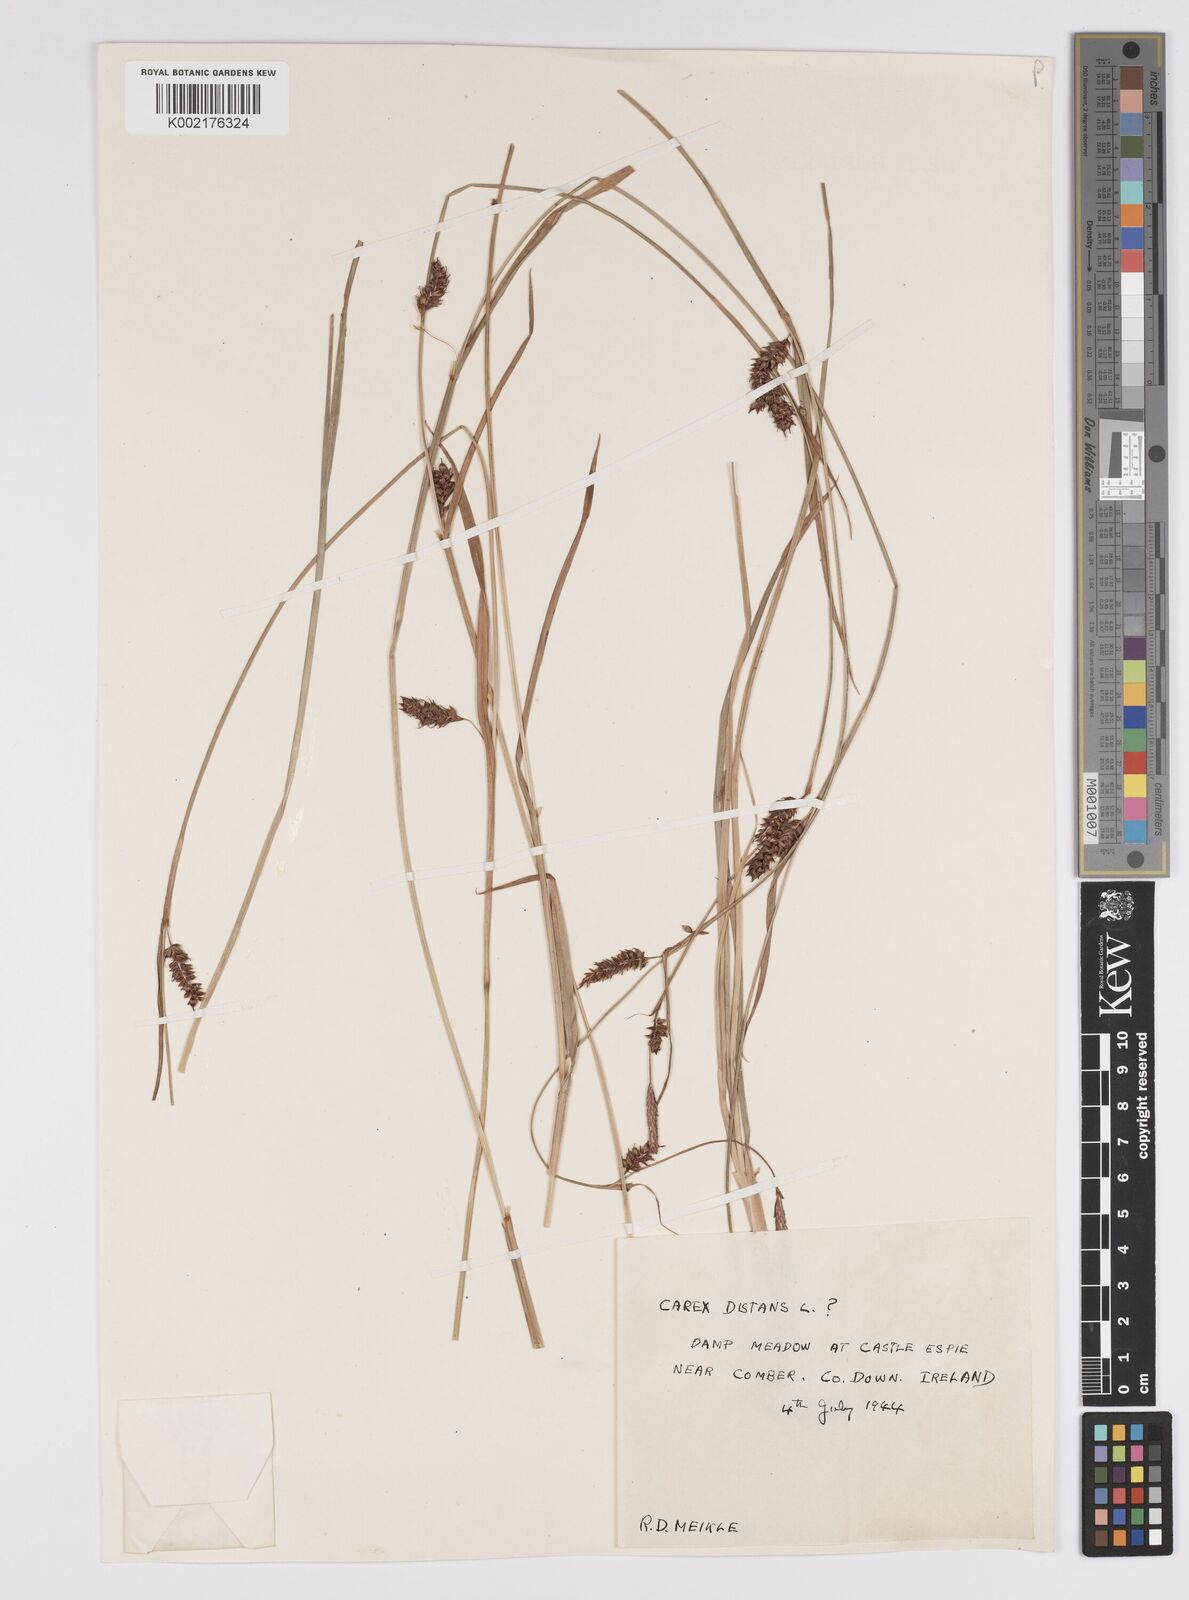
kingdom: Plantae
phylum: Tracheophyta
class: Liliopsida
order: Poales
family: Cyperaceae
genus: Carex
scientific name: Carex distans
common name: Distant sedge
